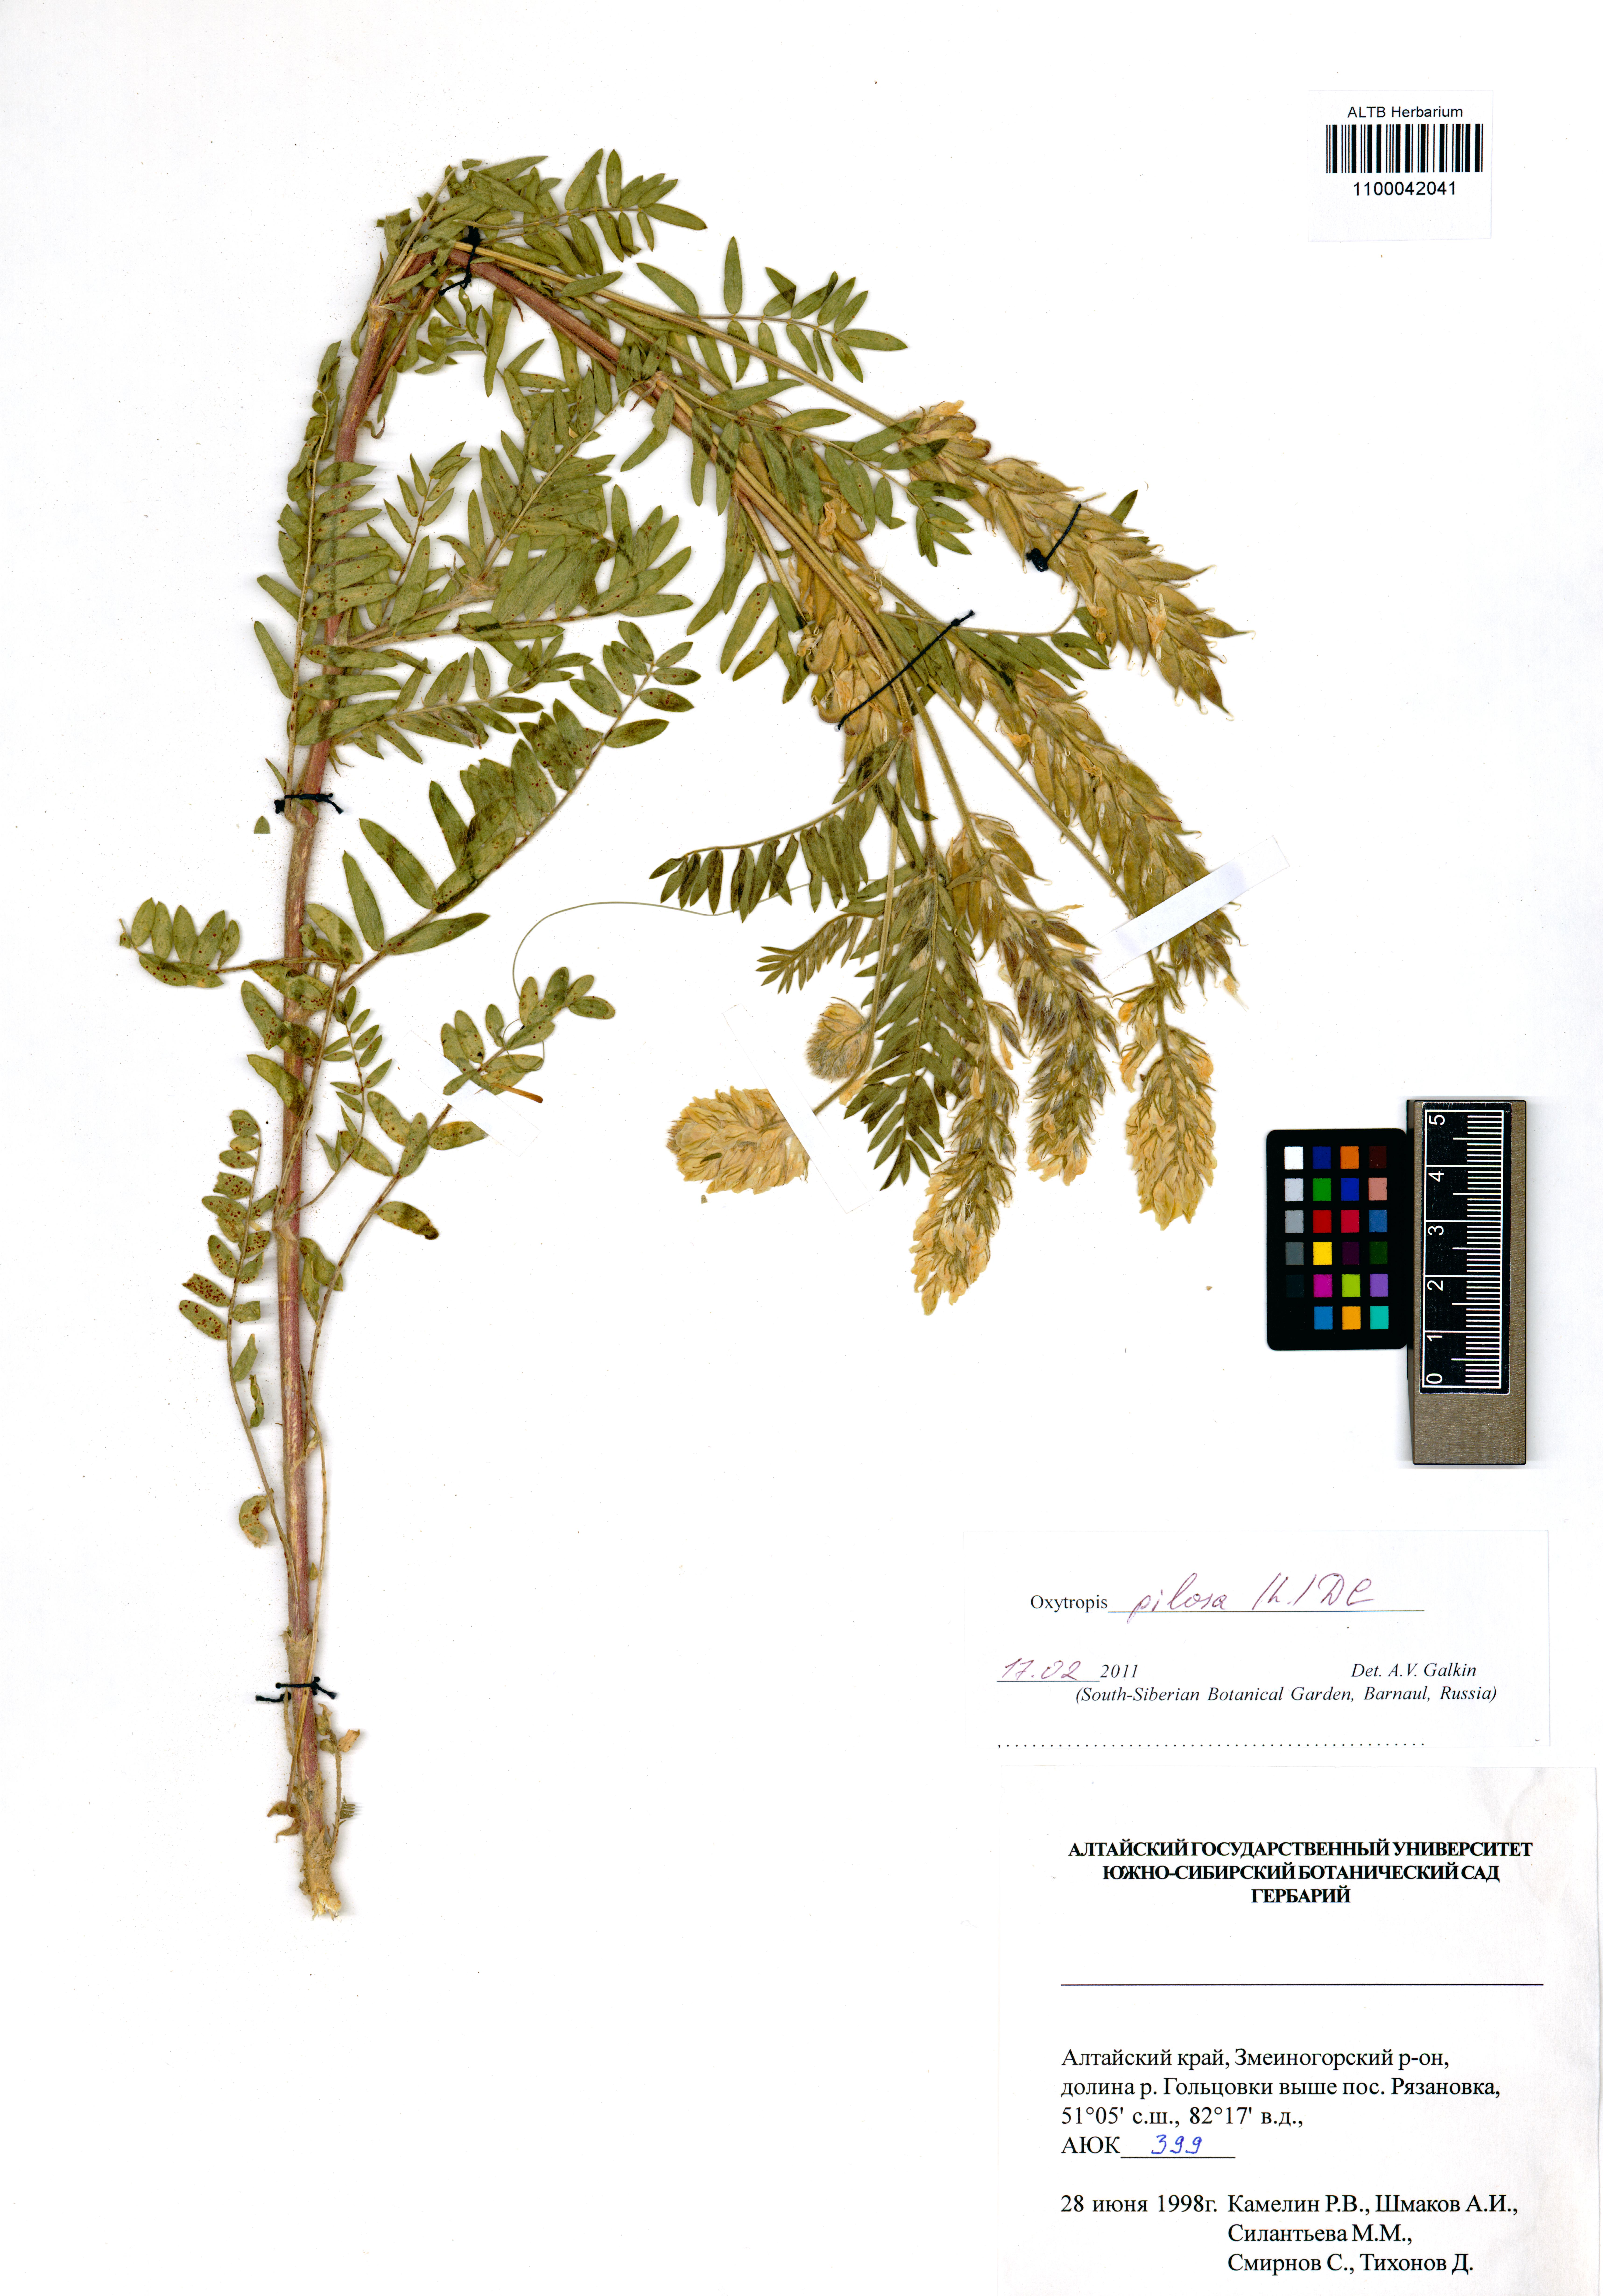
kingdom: Plantae
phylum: Tracheophyta
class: Magnoliopsida
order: Fabales
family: Fabaceae
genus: Oxytropis
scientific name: Oxytropis pilosa
